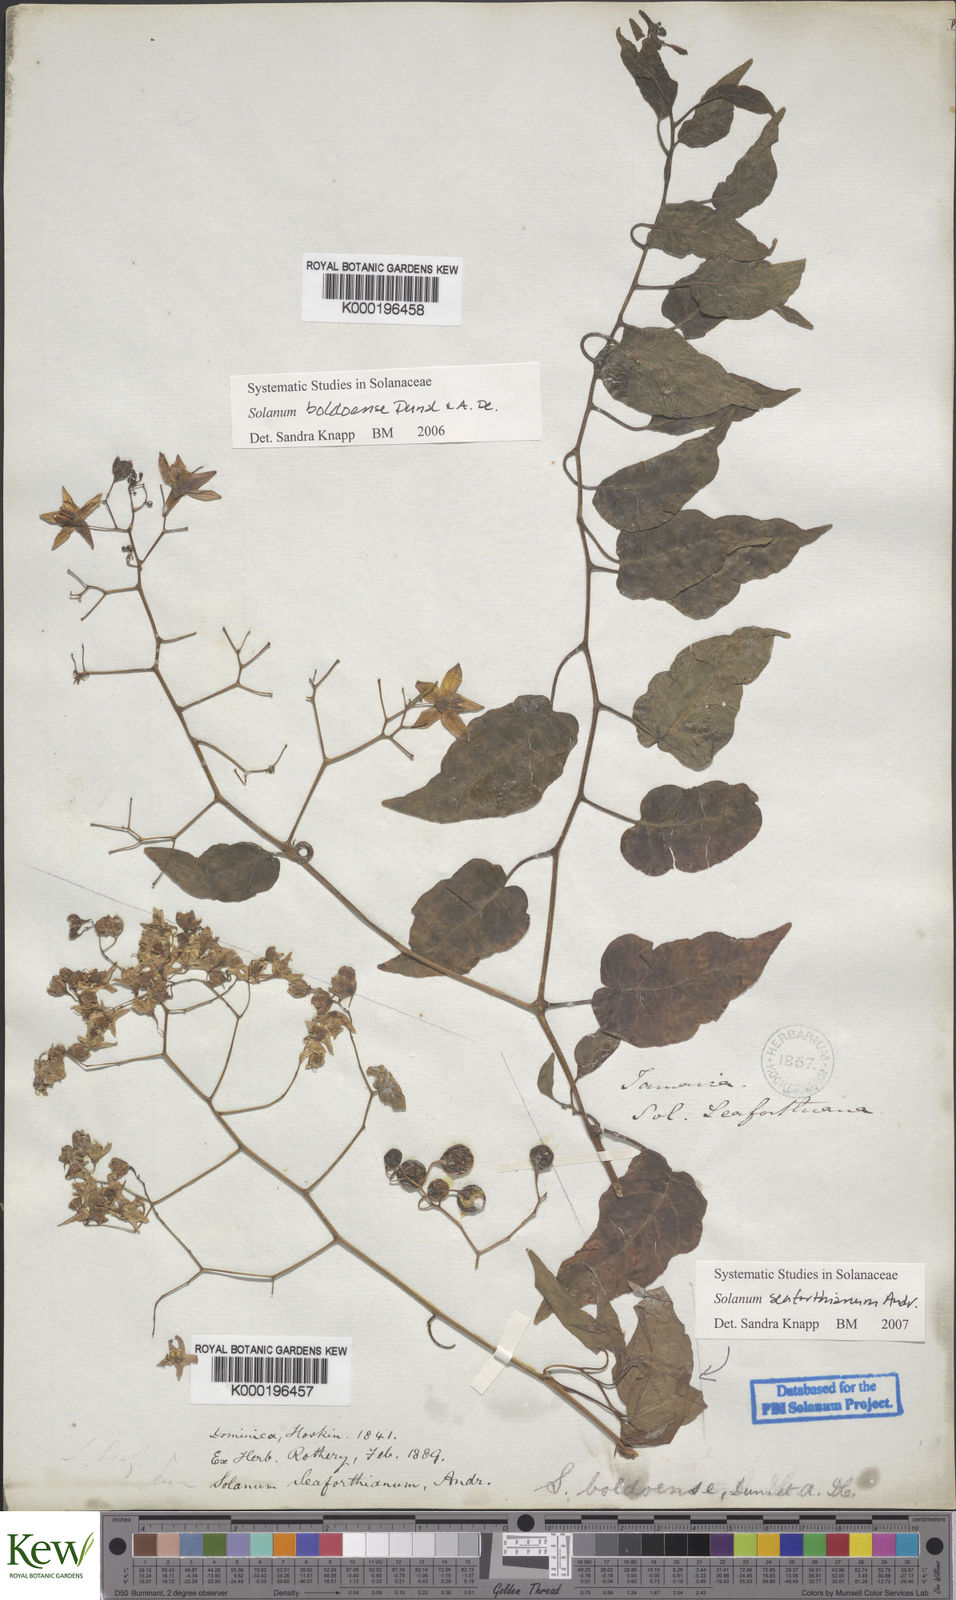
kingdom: Plantae
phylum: Tracheophyta
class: Magnoliopsida
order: Solanales
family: Solanaceae
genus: Solanum
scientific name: Solanum boldoense
